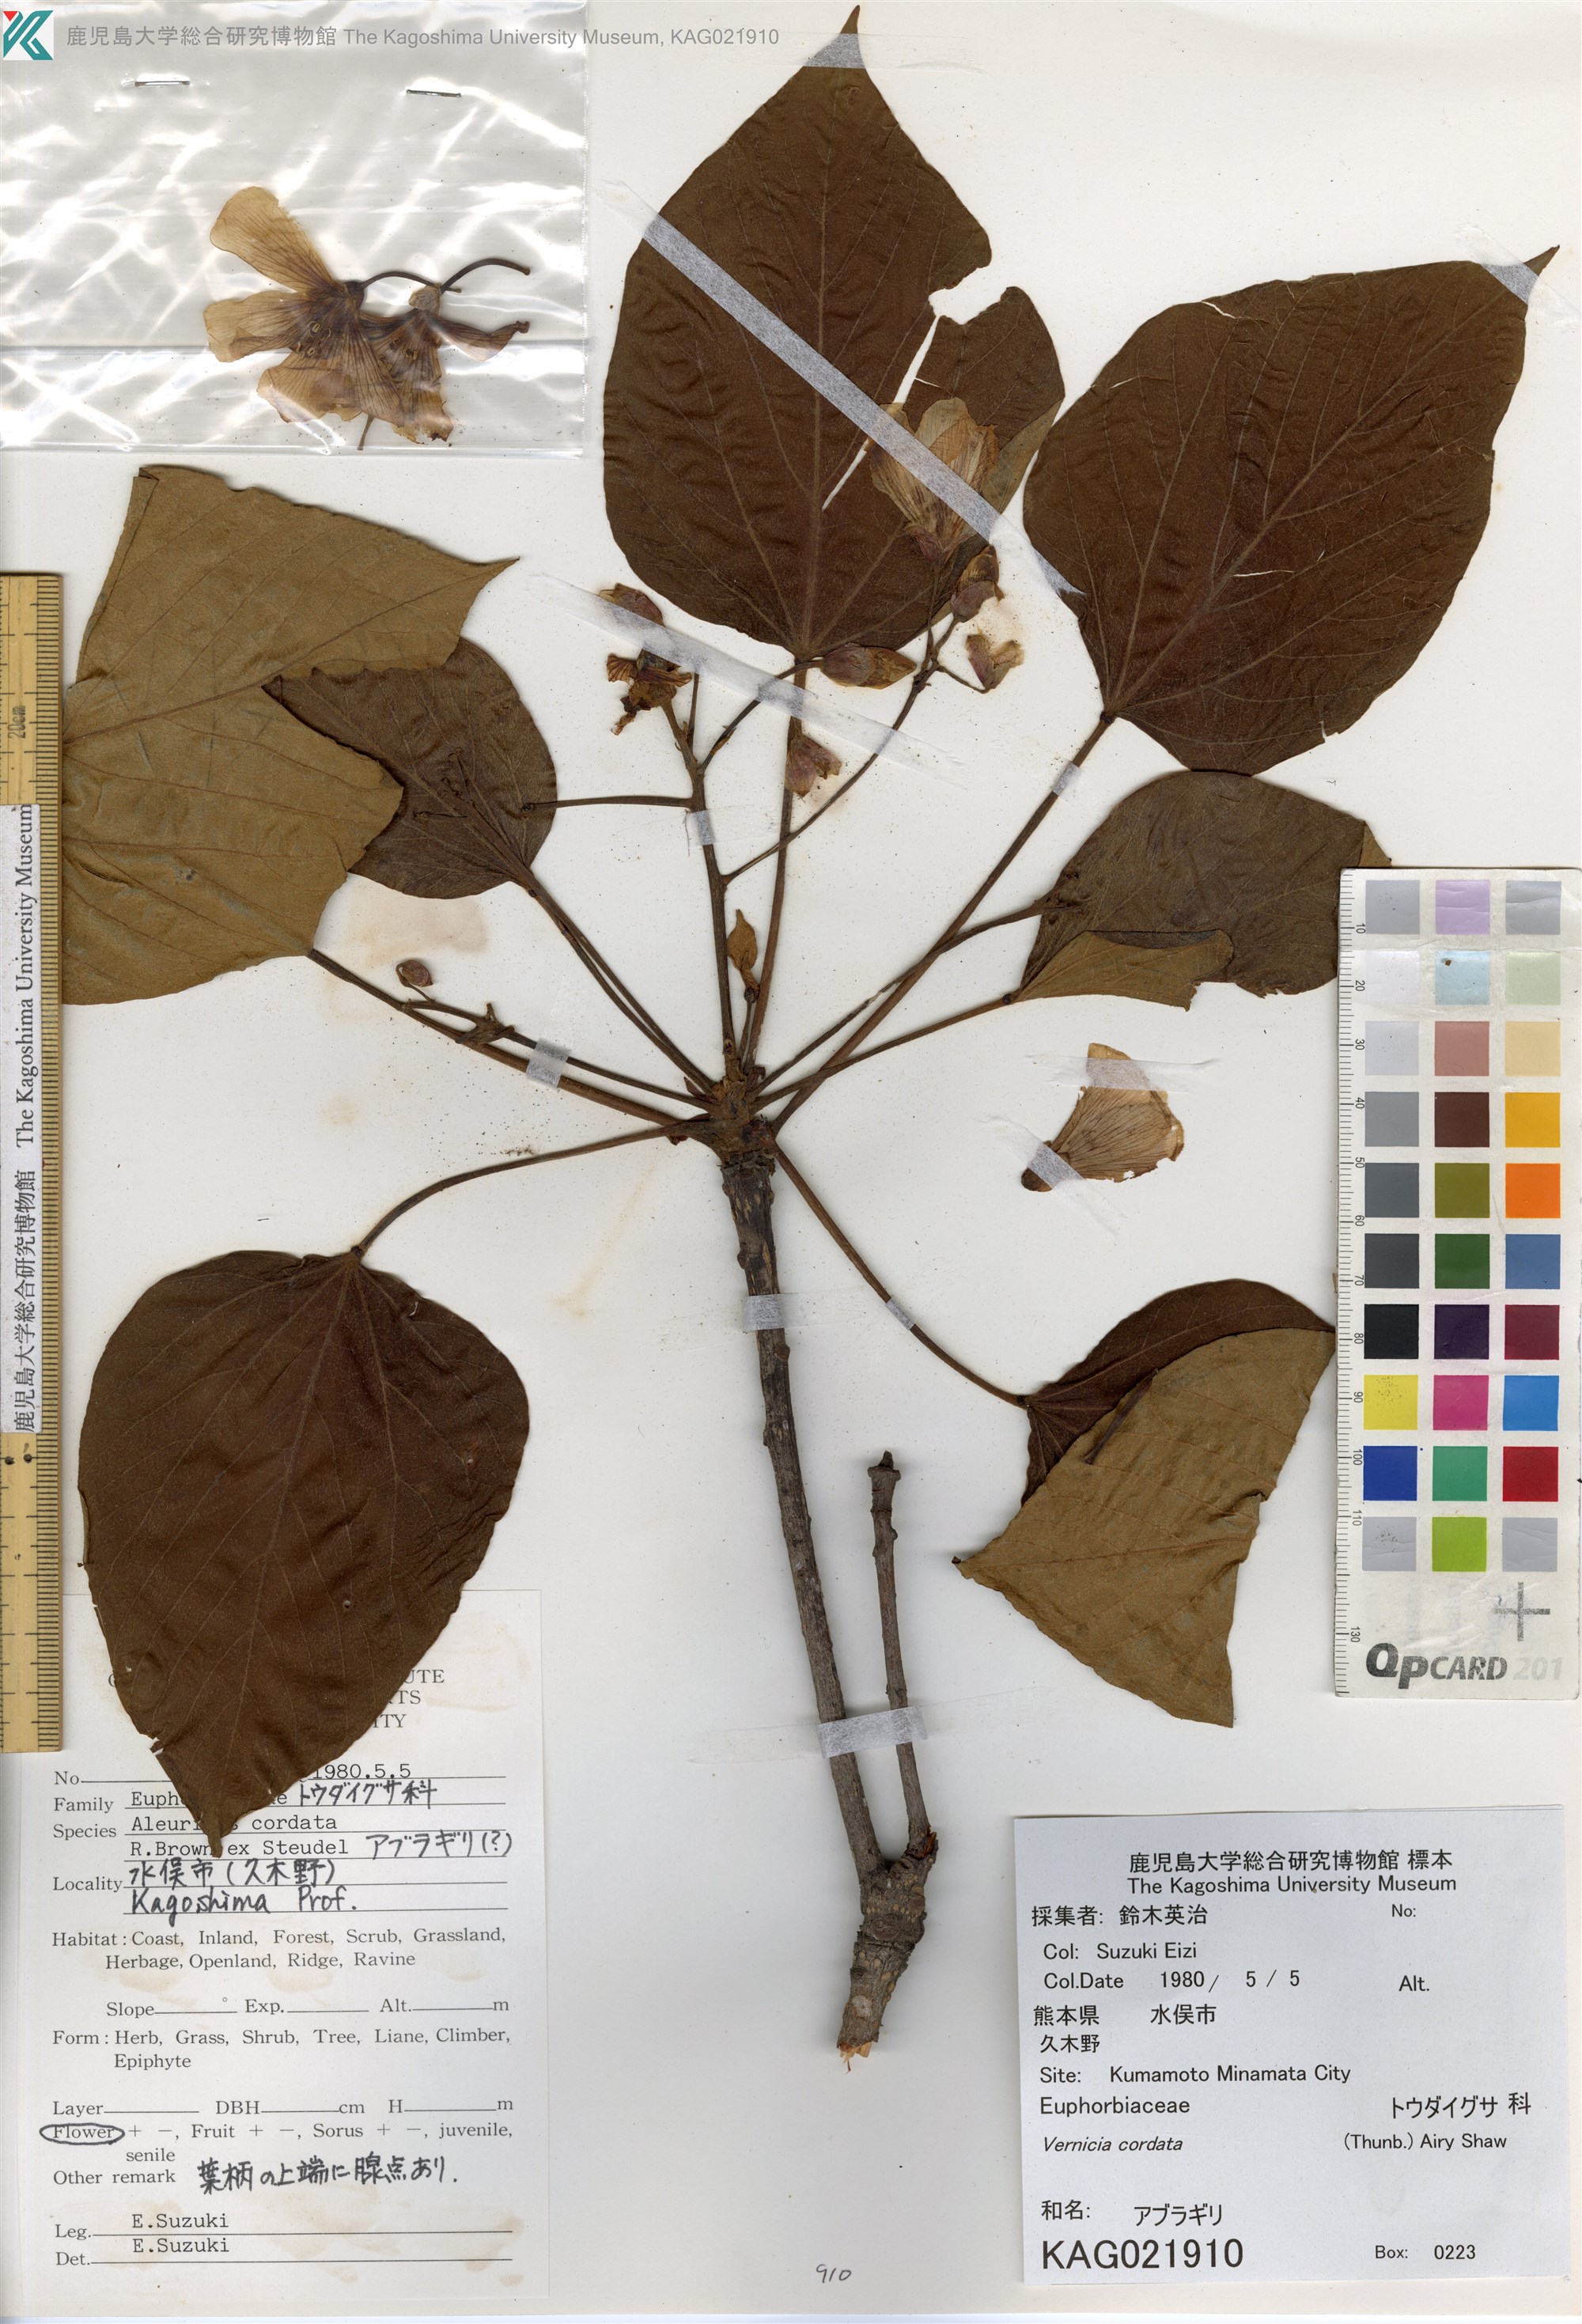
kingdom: Plantae
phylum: Tracheophyta
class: Magnoliopsida
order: Malpighiales
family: Euphorbiaceae
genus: Vernicia
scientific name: Vernicia cordata
